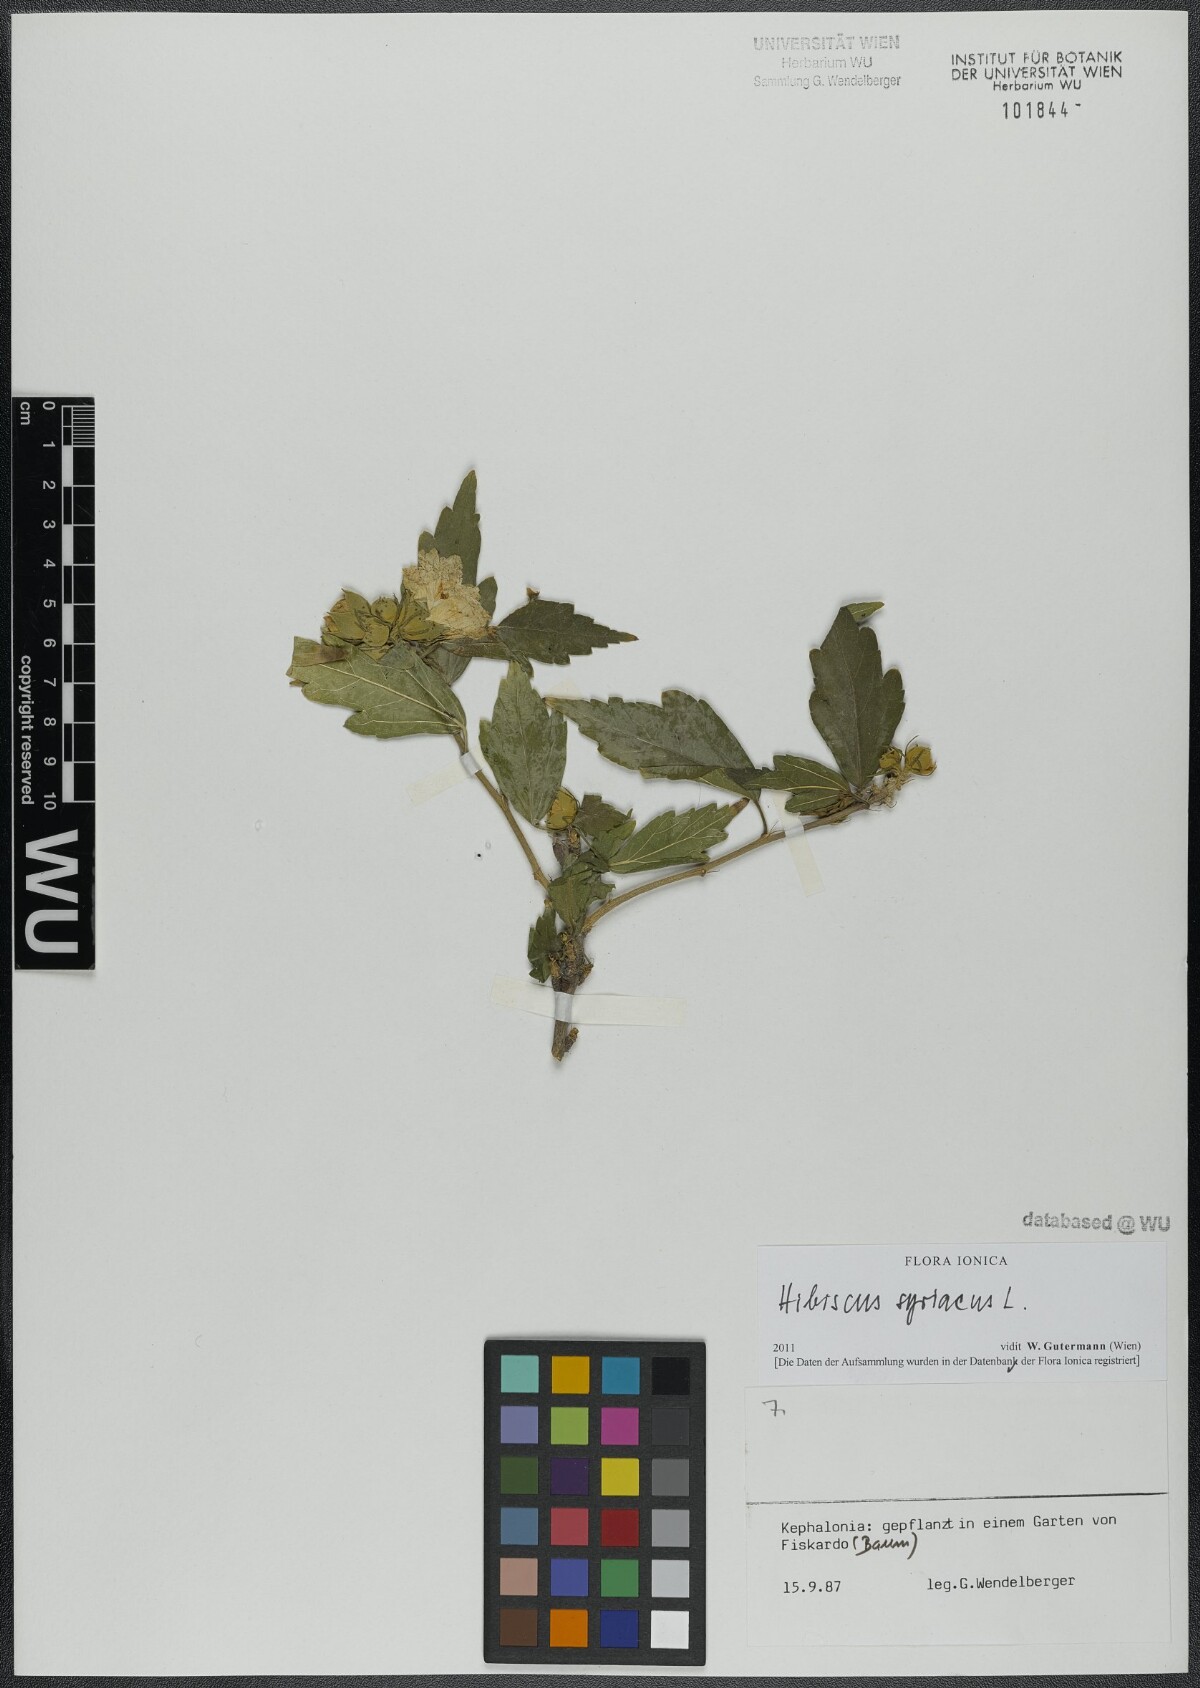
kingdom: Plantae
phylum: Tracheophyta
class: Magnoliopsida
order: Malvales
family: Malvaceae
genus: Hibiscus
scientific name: Hibiscus syriacus
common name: Syrian ketmia
